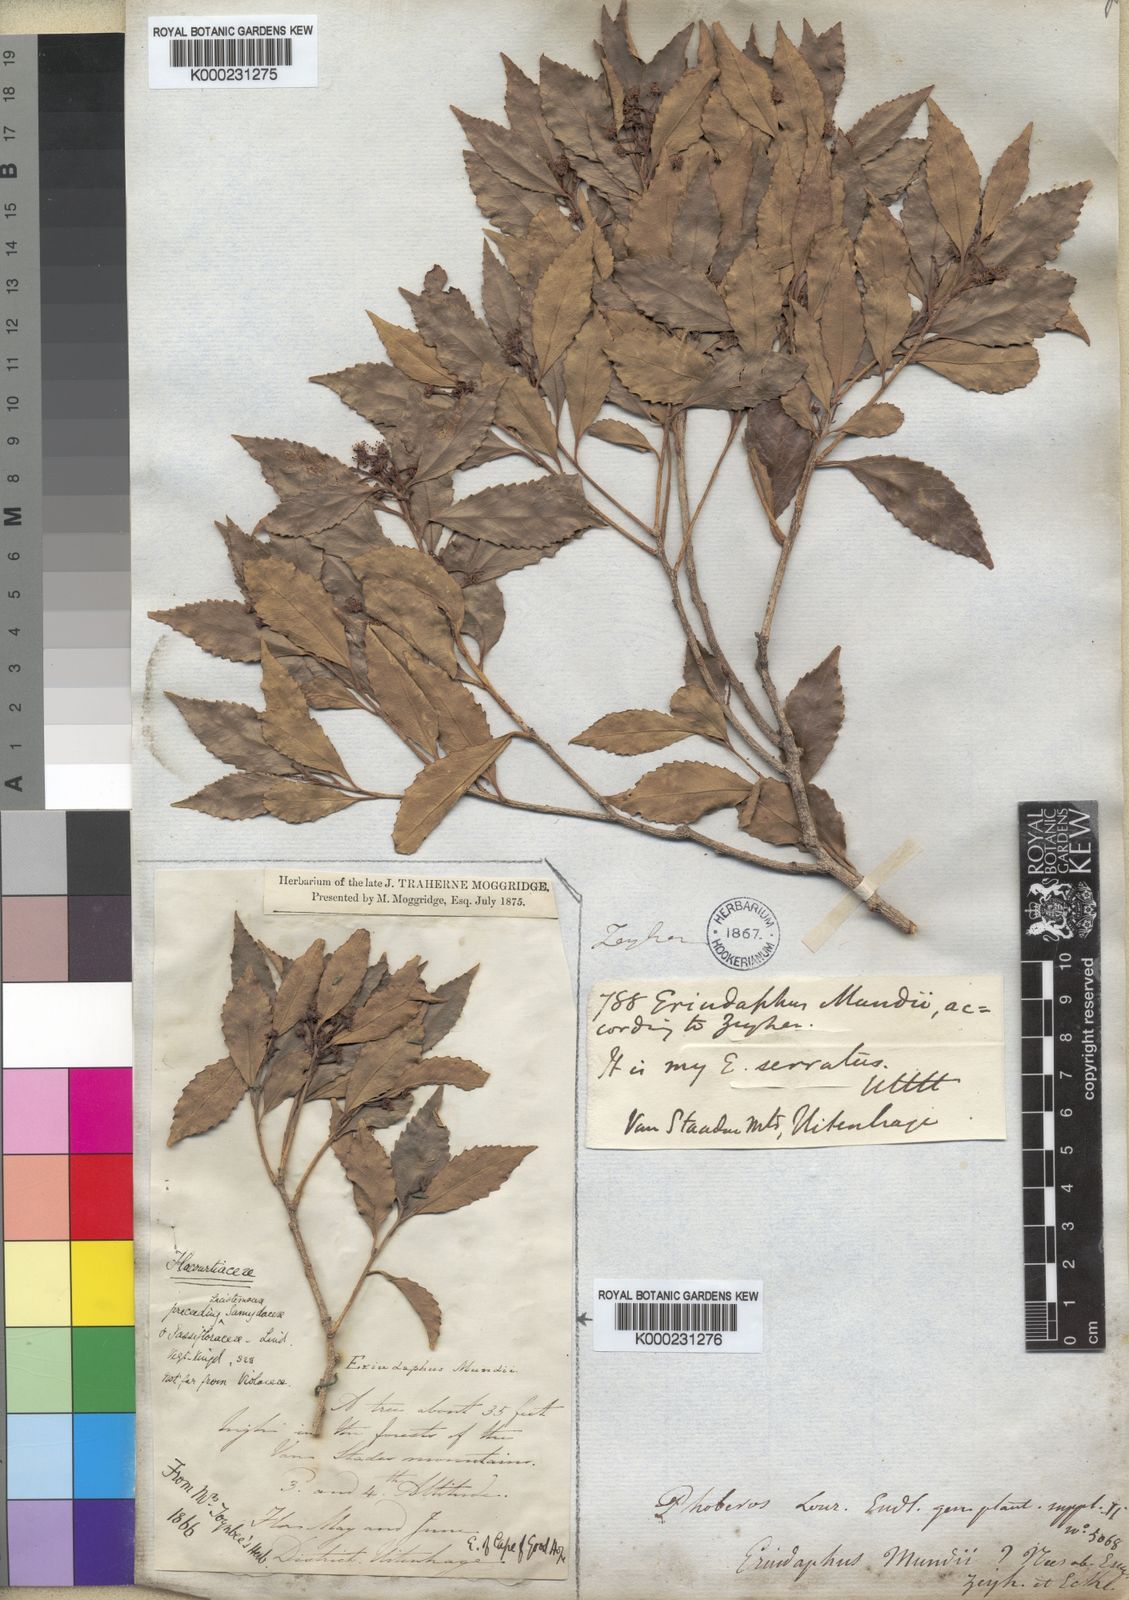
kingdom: Plantae
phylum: Tracheophyta
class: Magnoliopsida
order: Malpighiales
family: Salicaceae
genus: Scolopia
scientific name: Scolopia mundii
